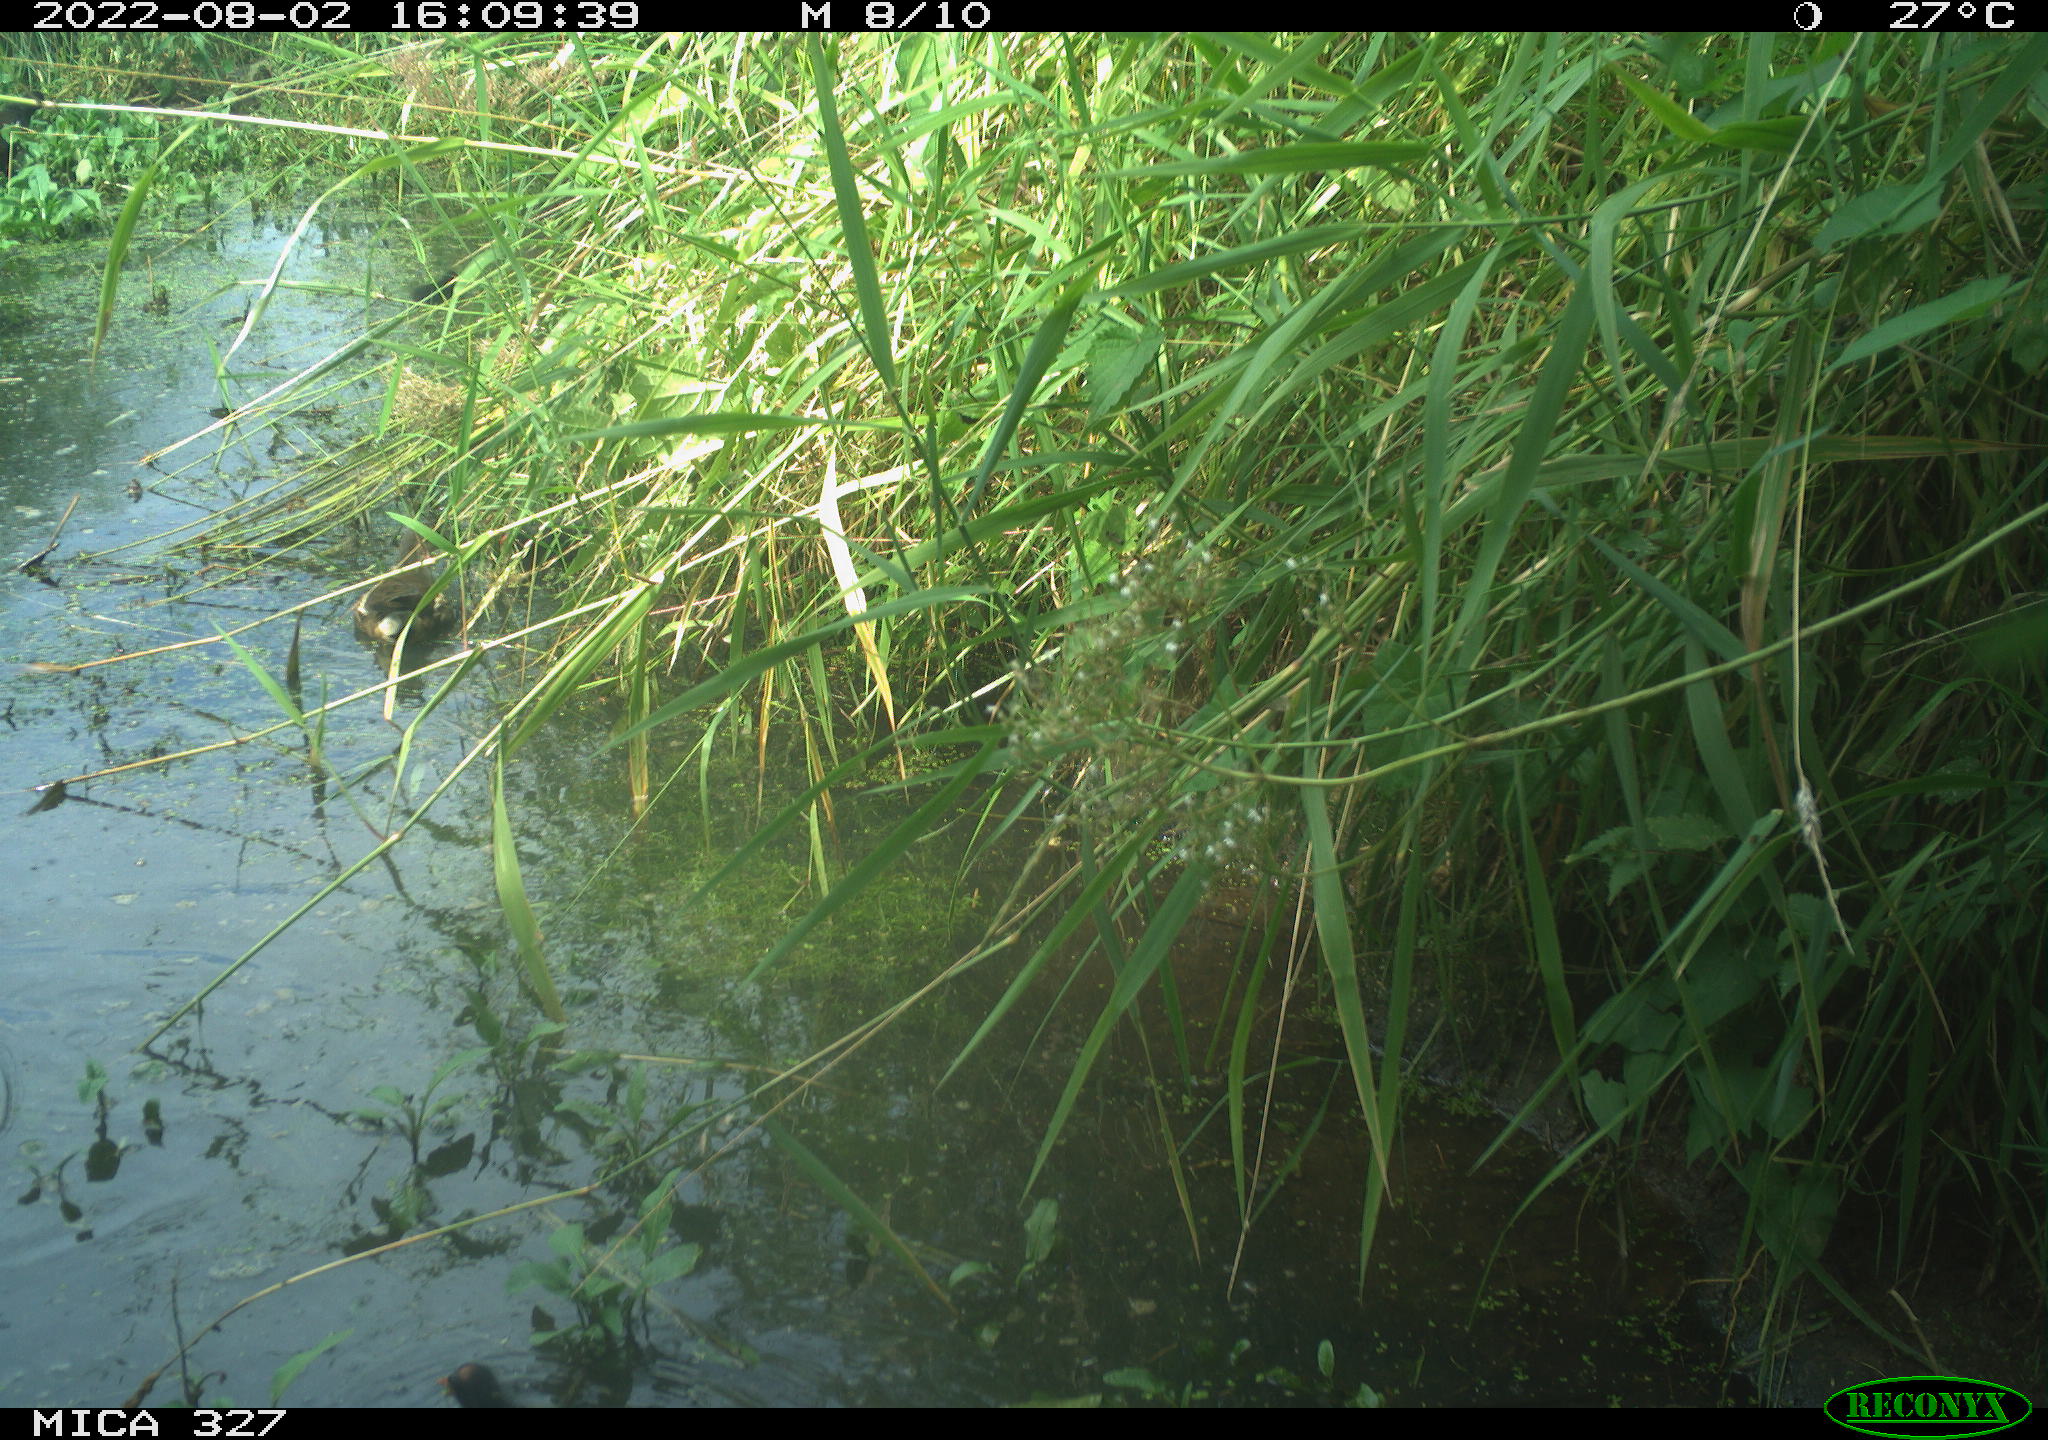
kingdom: Animalia
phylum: Chordata
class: Aves
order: Gruiformes
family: Rallidae
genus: Gallinula
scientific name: Gallinula chloropus
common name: Common moorhen
